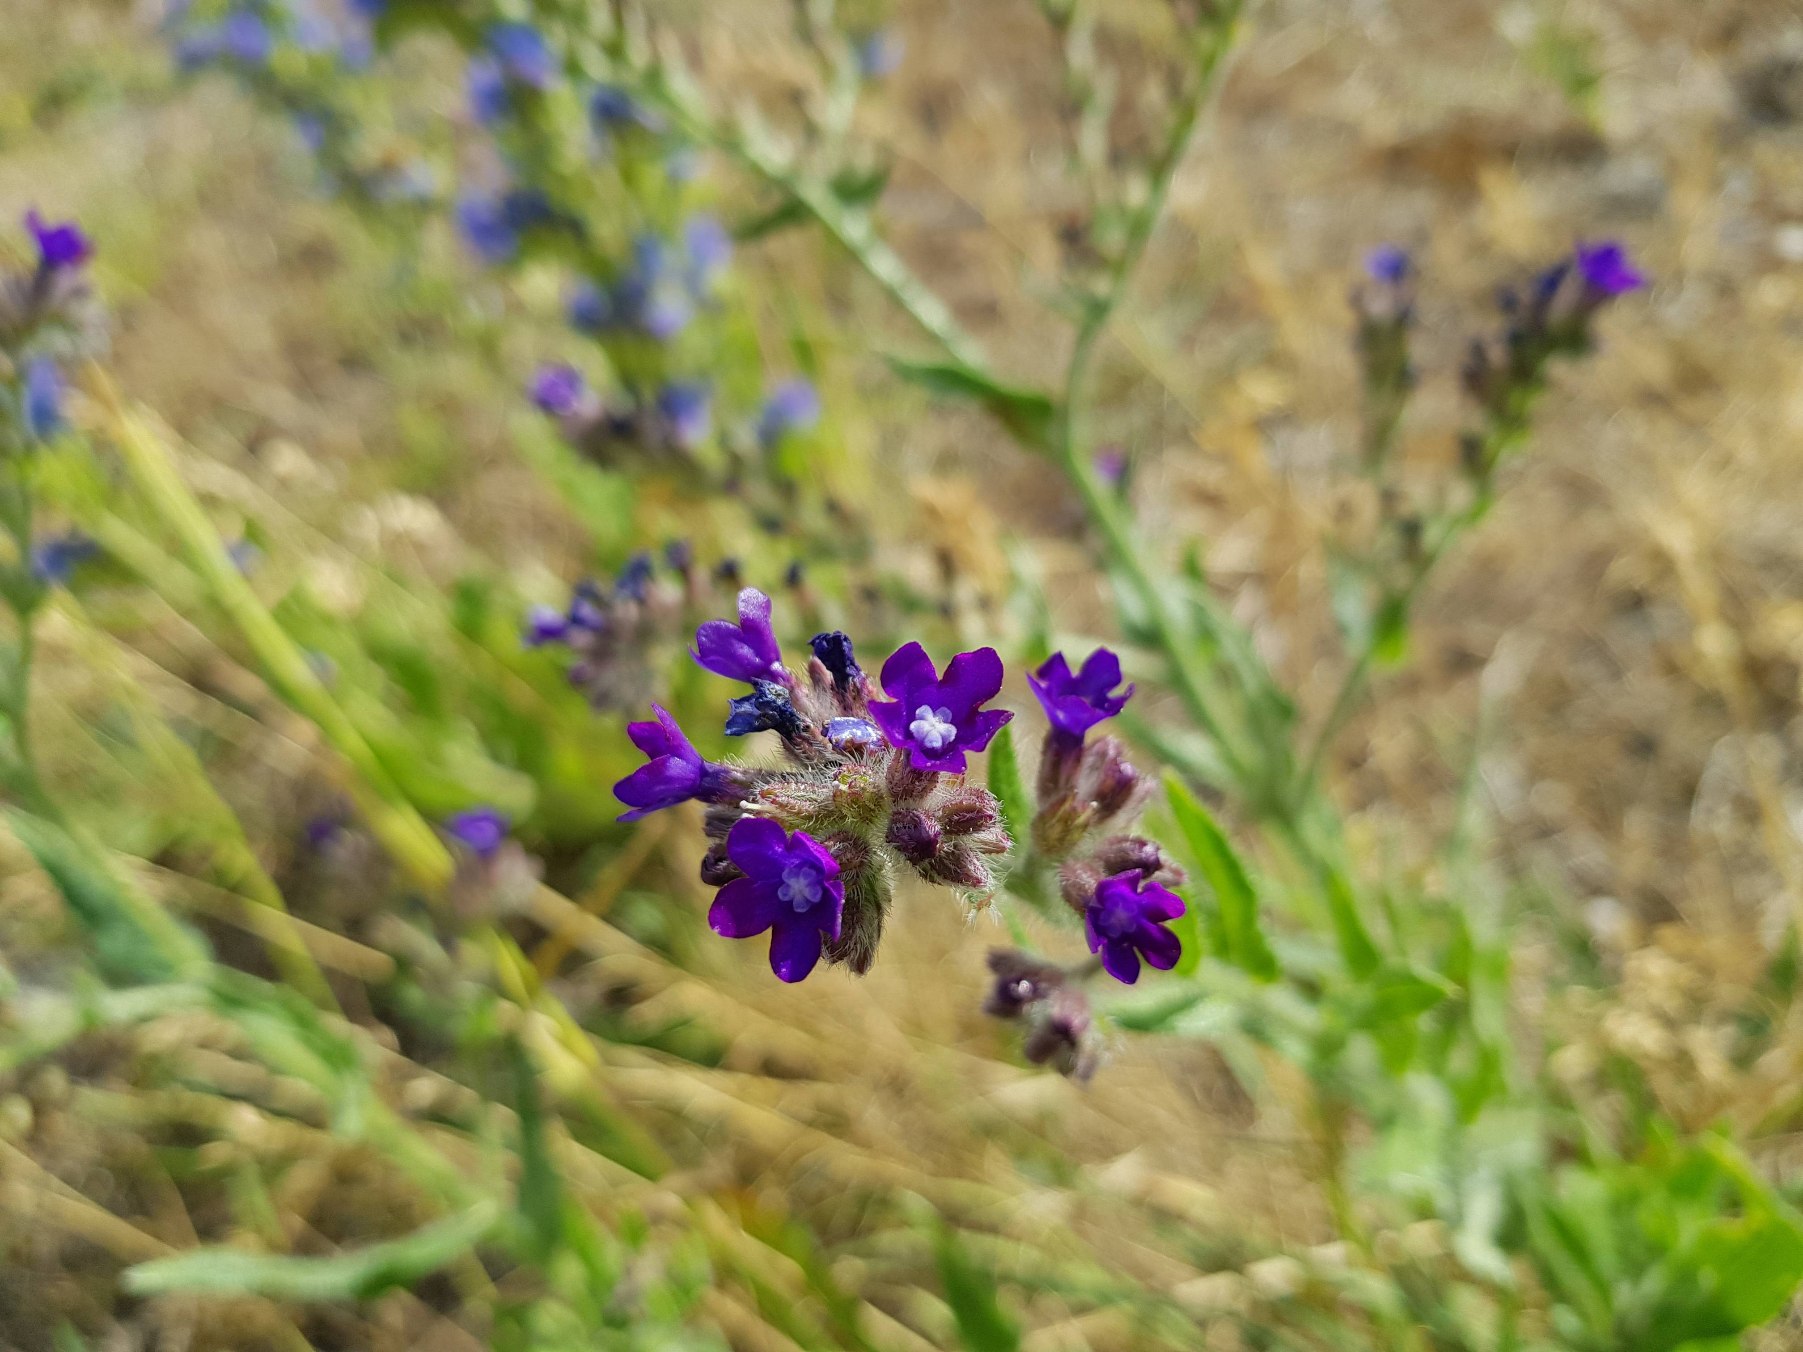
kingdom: Plantae
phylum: Tracheophyta
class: Magnoliopsida
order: Boraginales
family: Boraginaceae
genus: Anchusa
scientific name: Anchusa officinalis
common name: Læge-oksetunge
